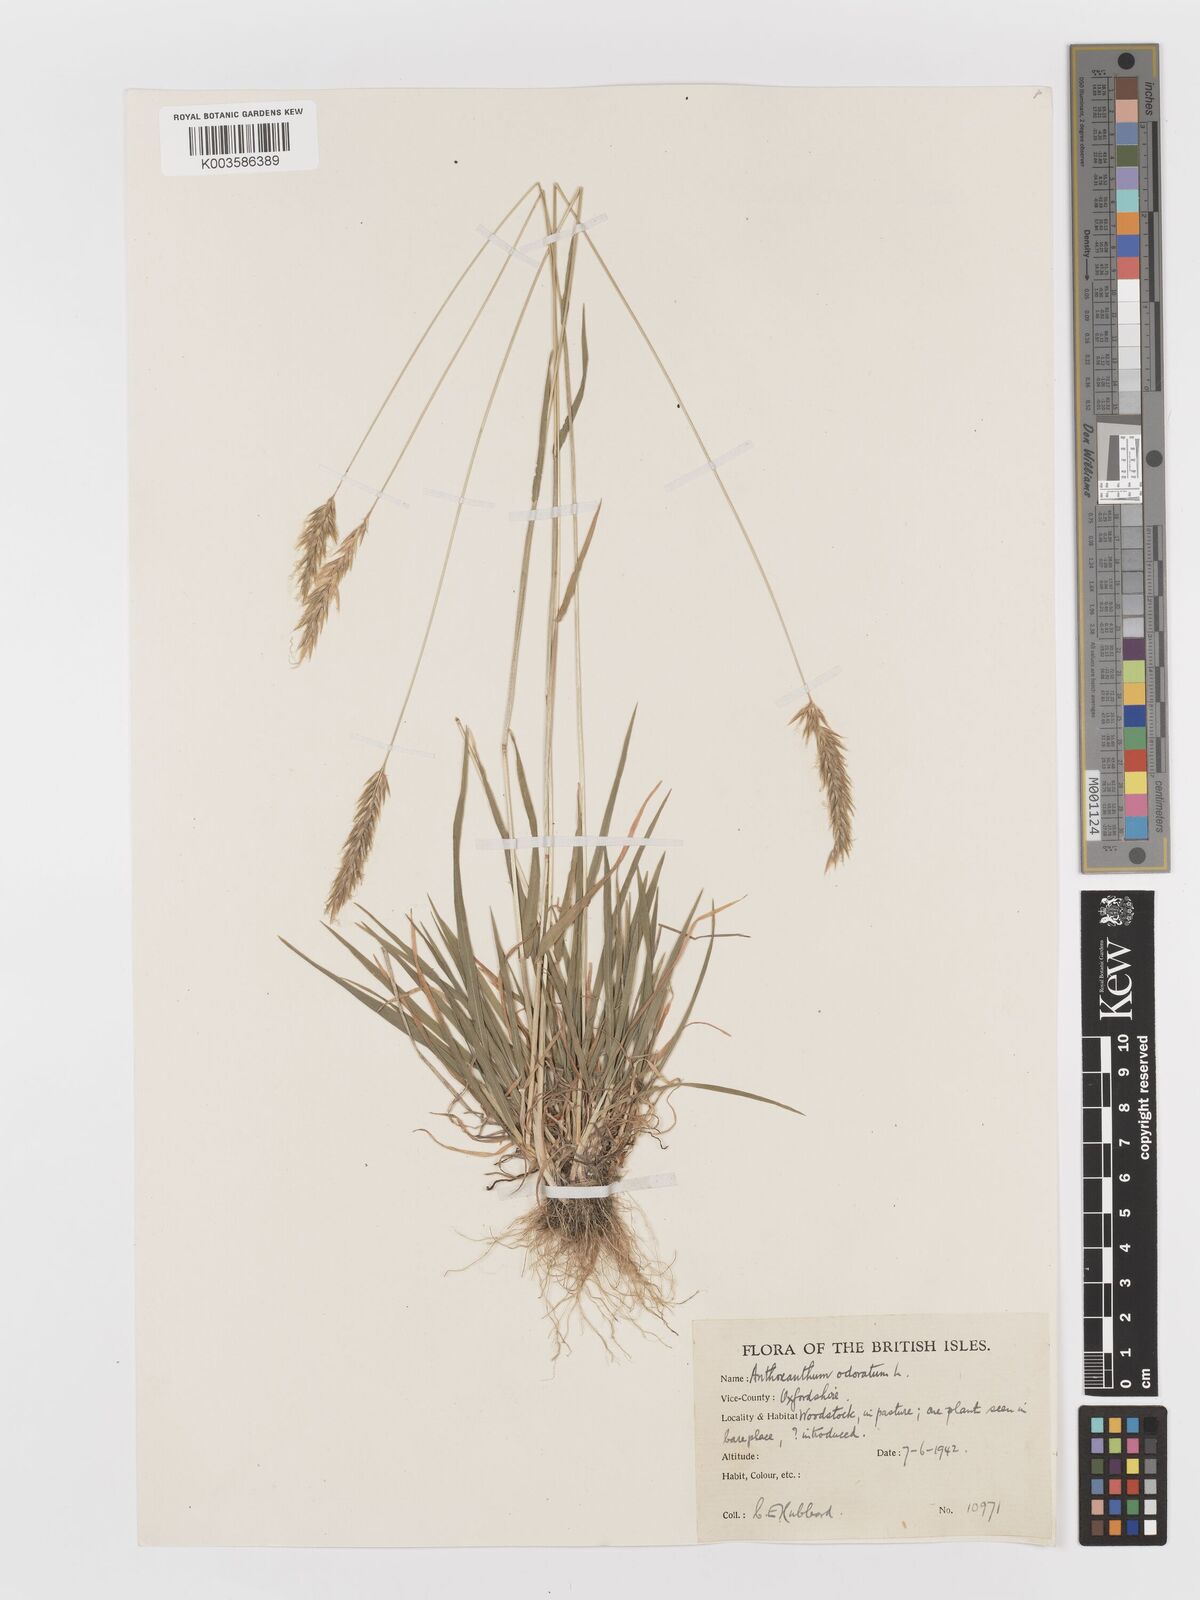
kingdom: Plantae
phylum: Tracheophyta
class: Liliopsida
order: Poales
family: Poaceae
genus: Anthoxanthum
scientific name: Anthoxanthum odoratum
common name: Sweet vernalgrass
